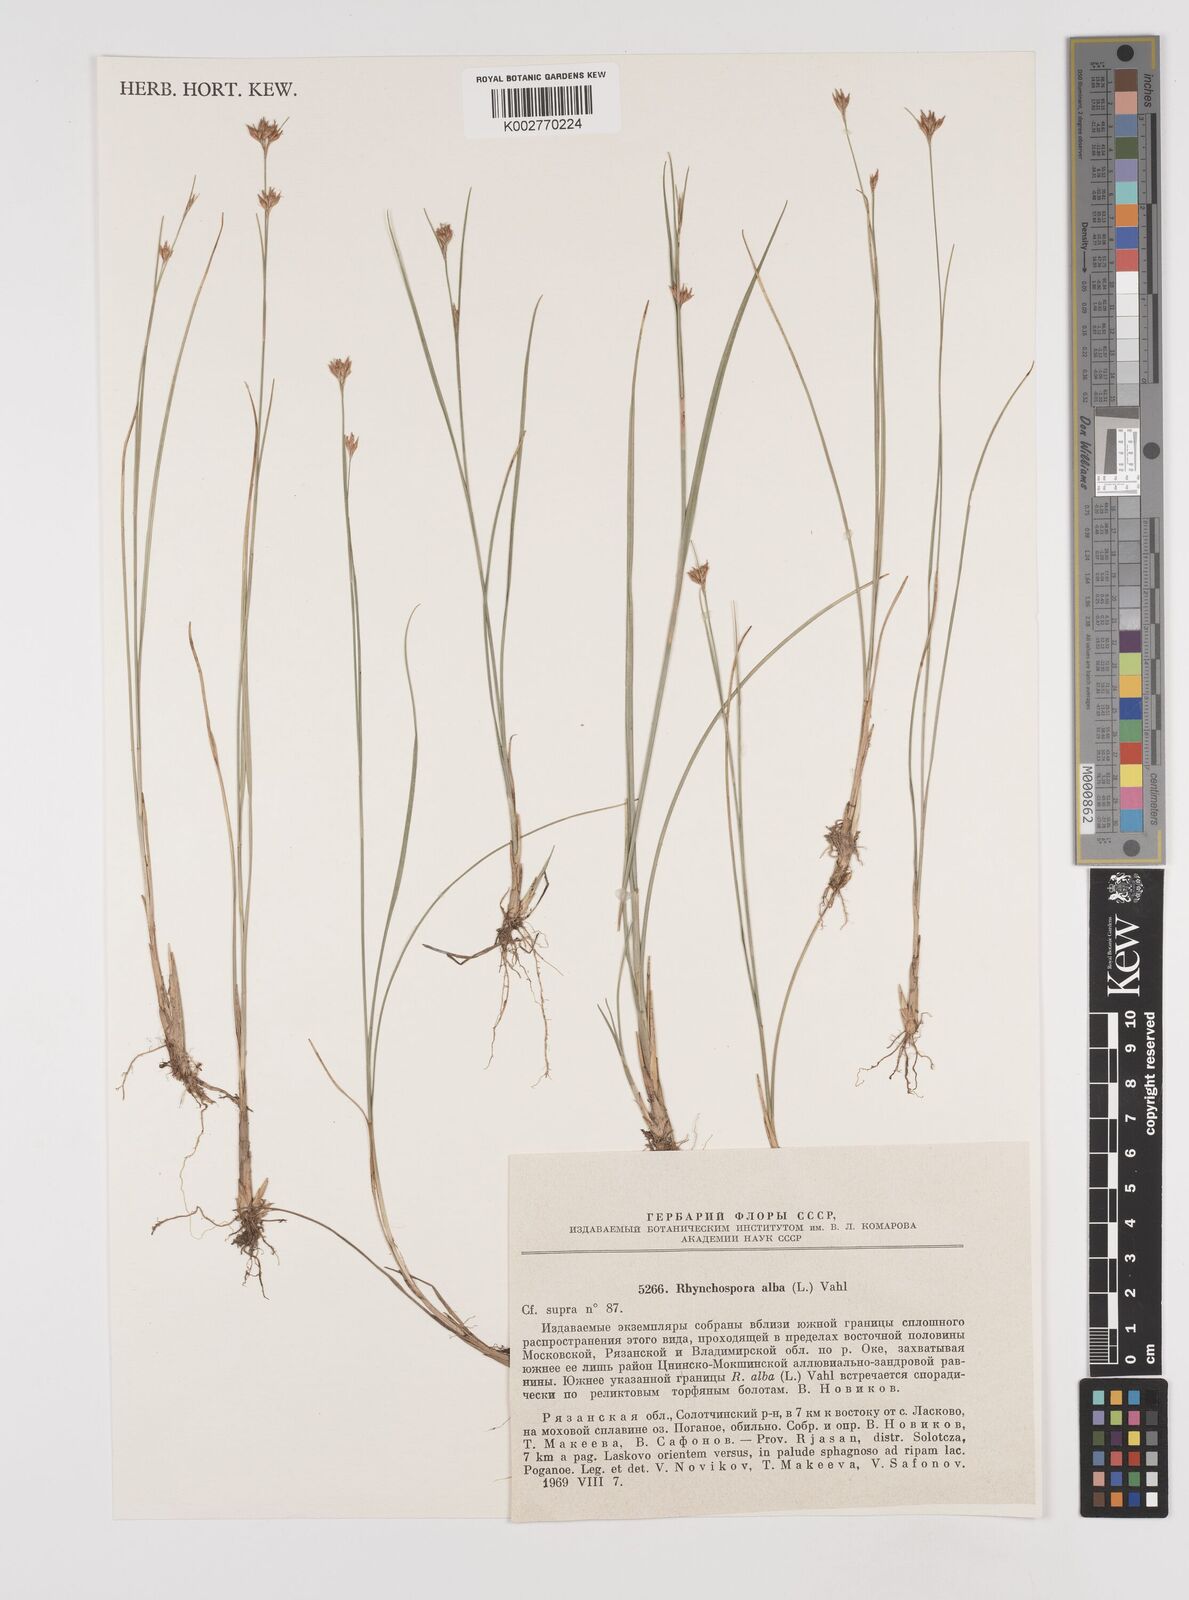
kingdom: Plantae
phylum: Tracheophyta
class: Liliopsida
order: Poales
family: Cyperaceae
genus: Rhynchospora
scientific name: Rhynchospora alba
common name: White beak-sedge
